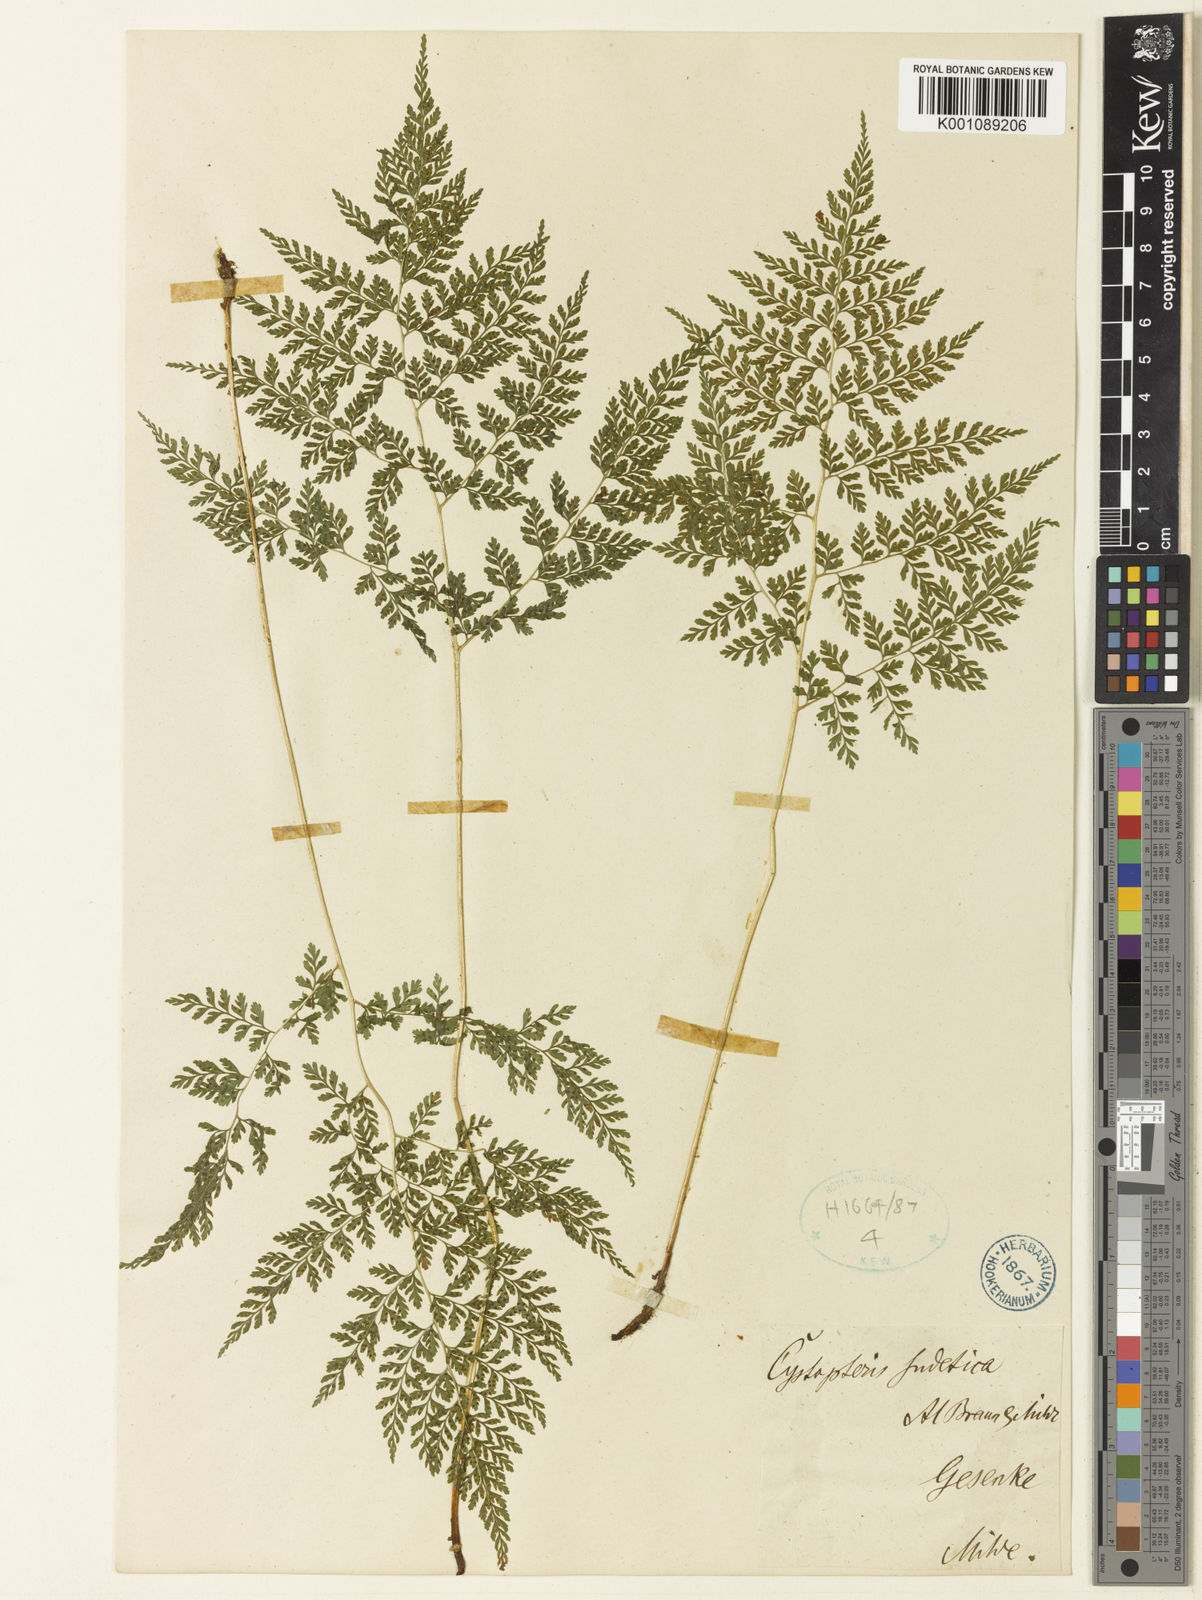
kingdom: Plantae
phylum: Tracheophyta
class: Polypodiopsida
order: Polypodiales
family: Cystopteridaceae
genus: Cystopteris
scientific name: Cystopteris sudetica
